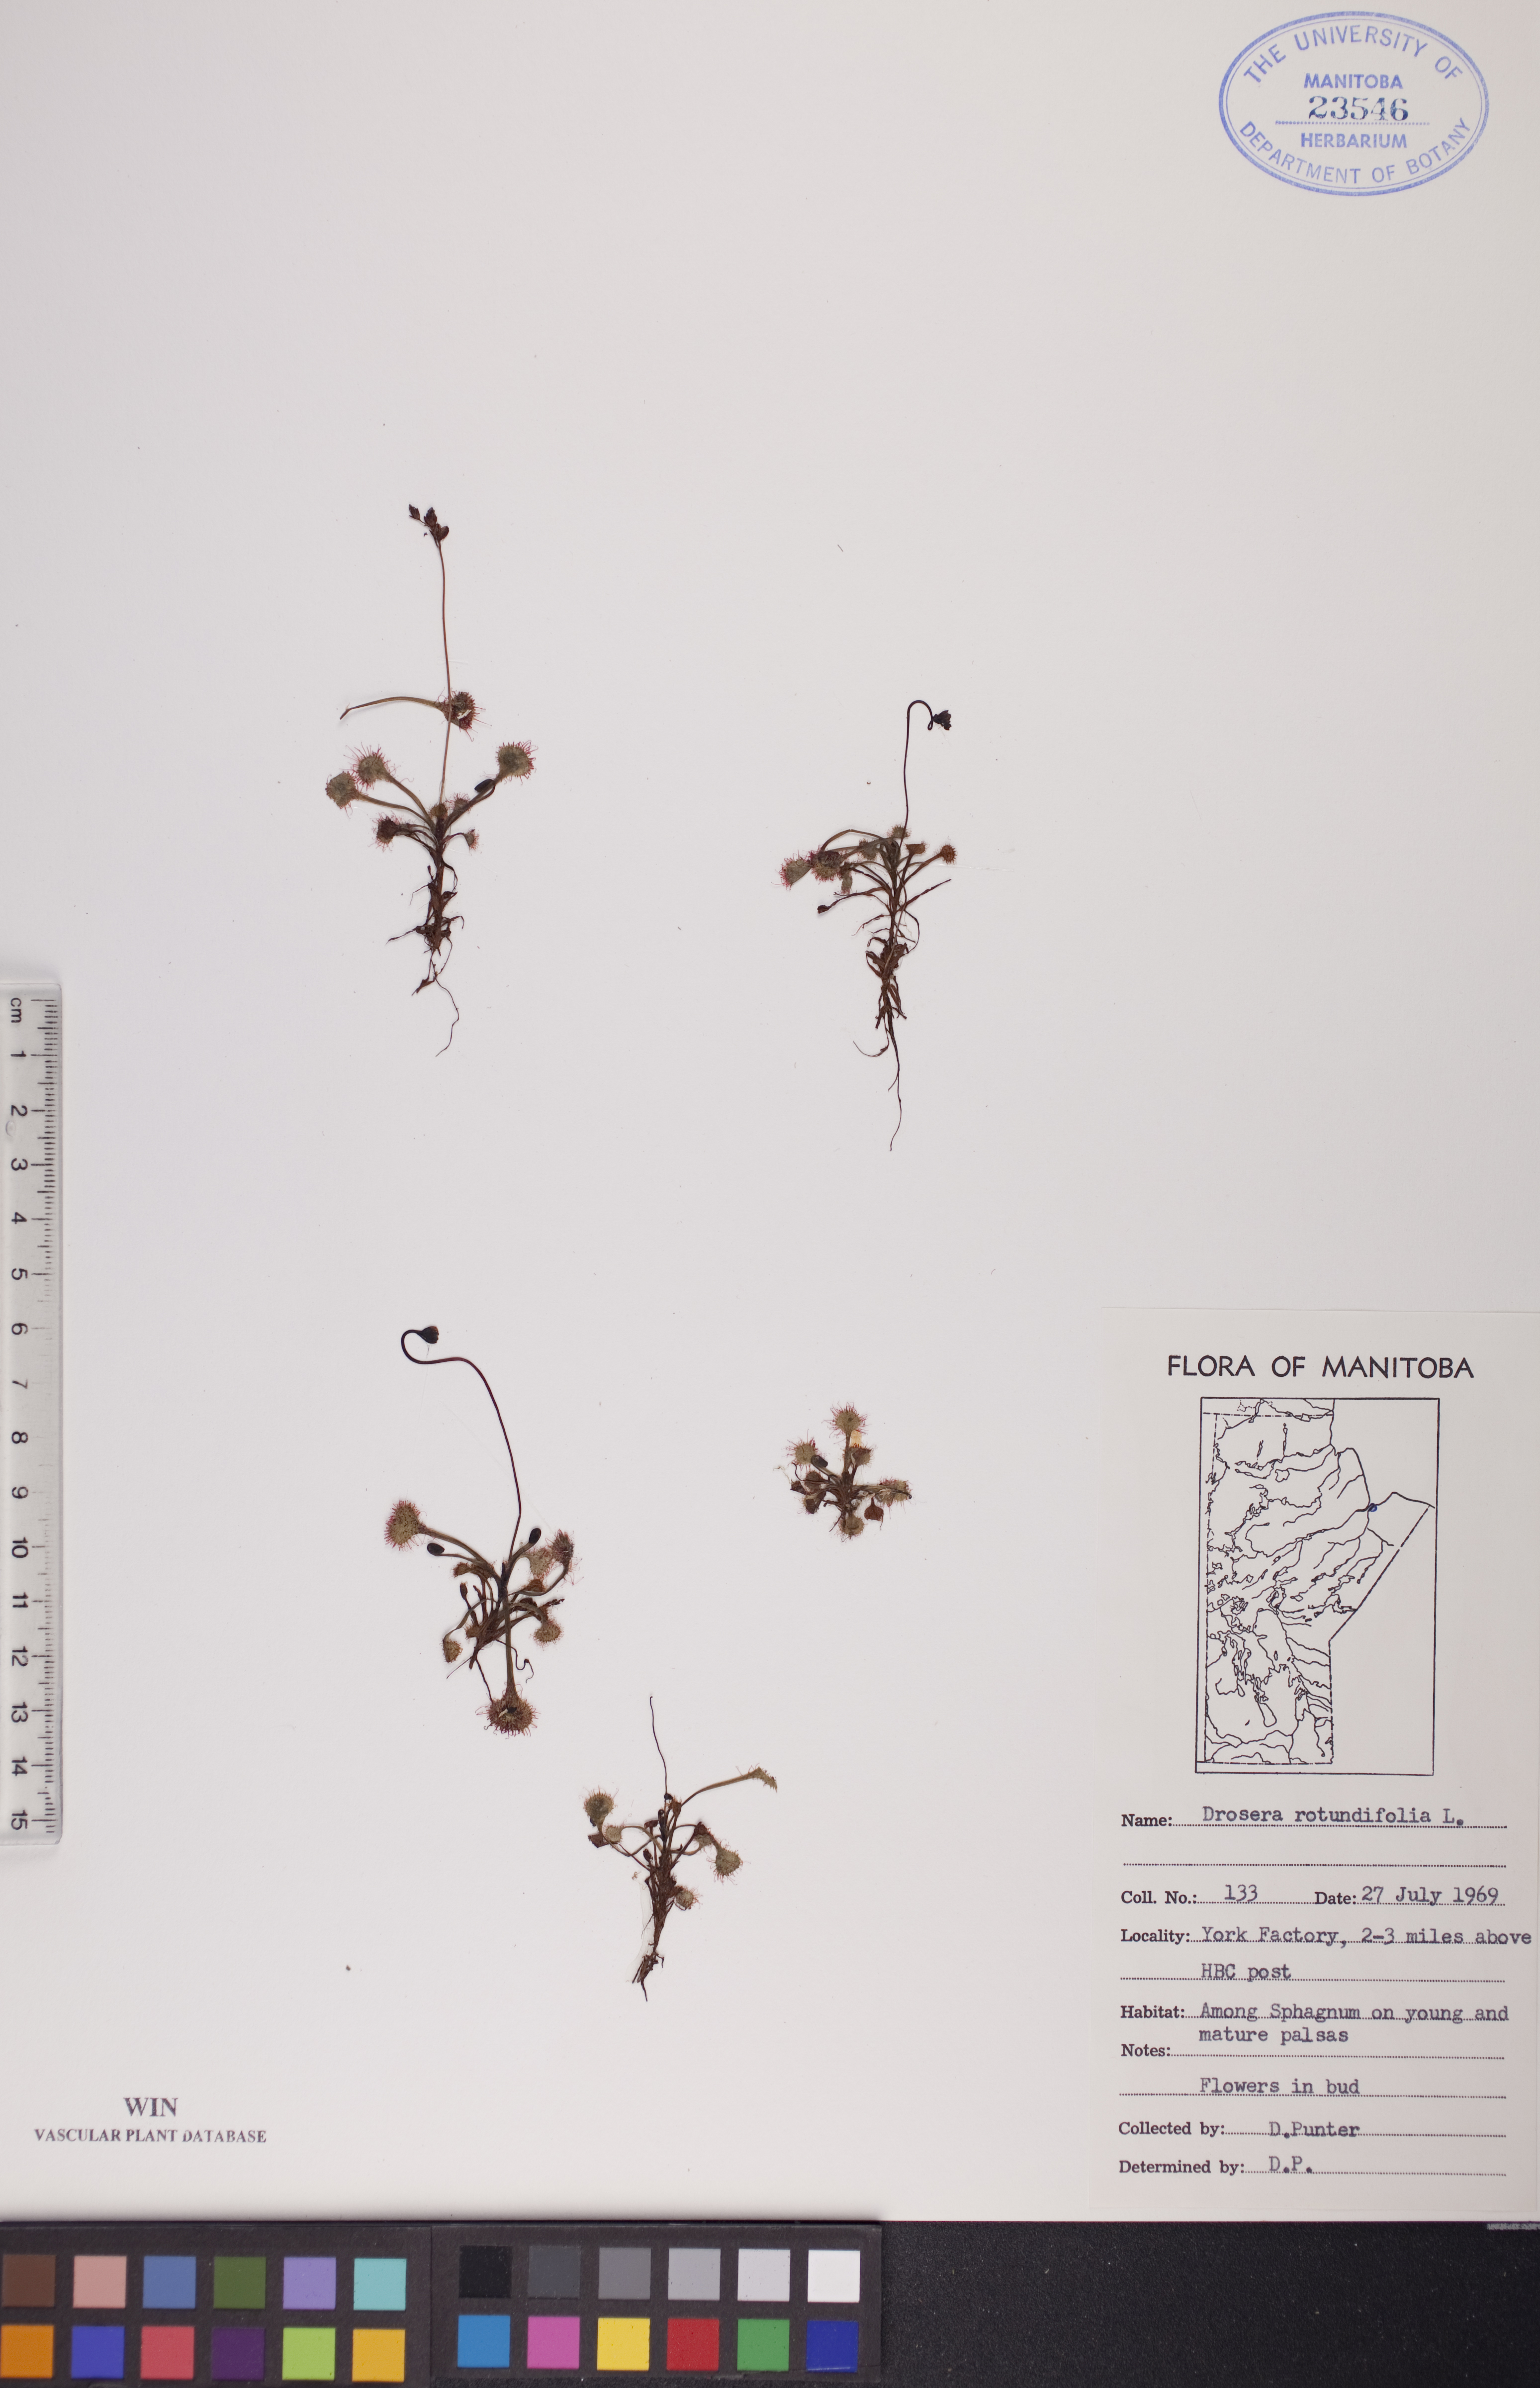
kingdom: Plantae
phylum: Tracheophyta
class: Magnoliopsida
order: Caryophyllales
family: Droseraceae
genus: Drosera
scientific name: Drosera rotundifolia
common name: Round-leaved sundew
